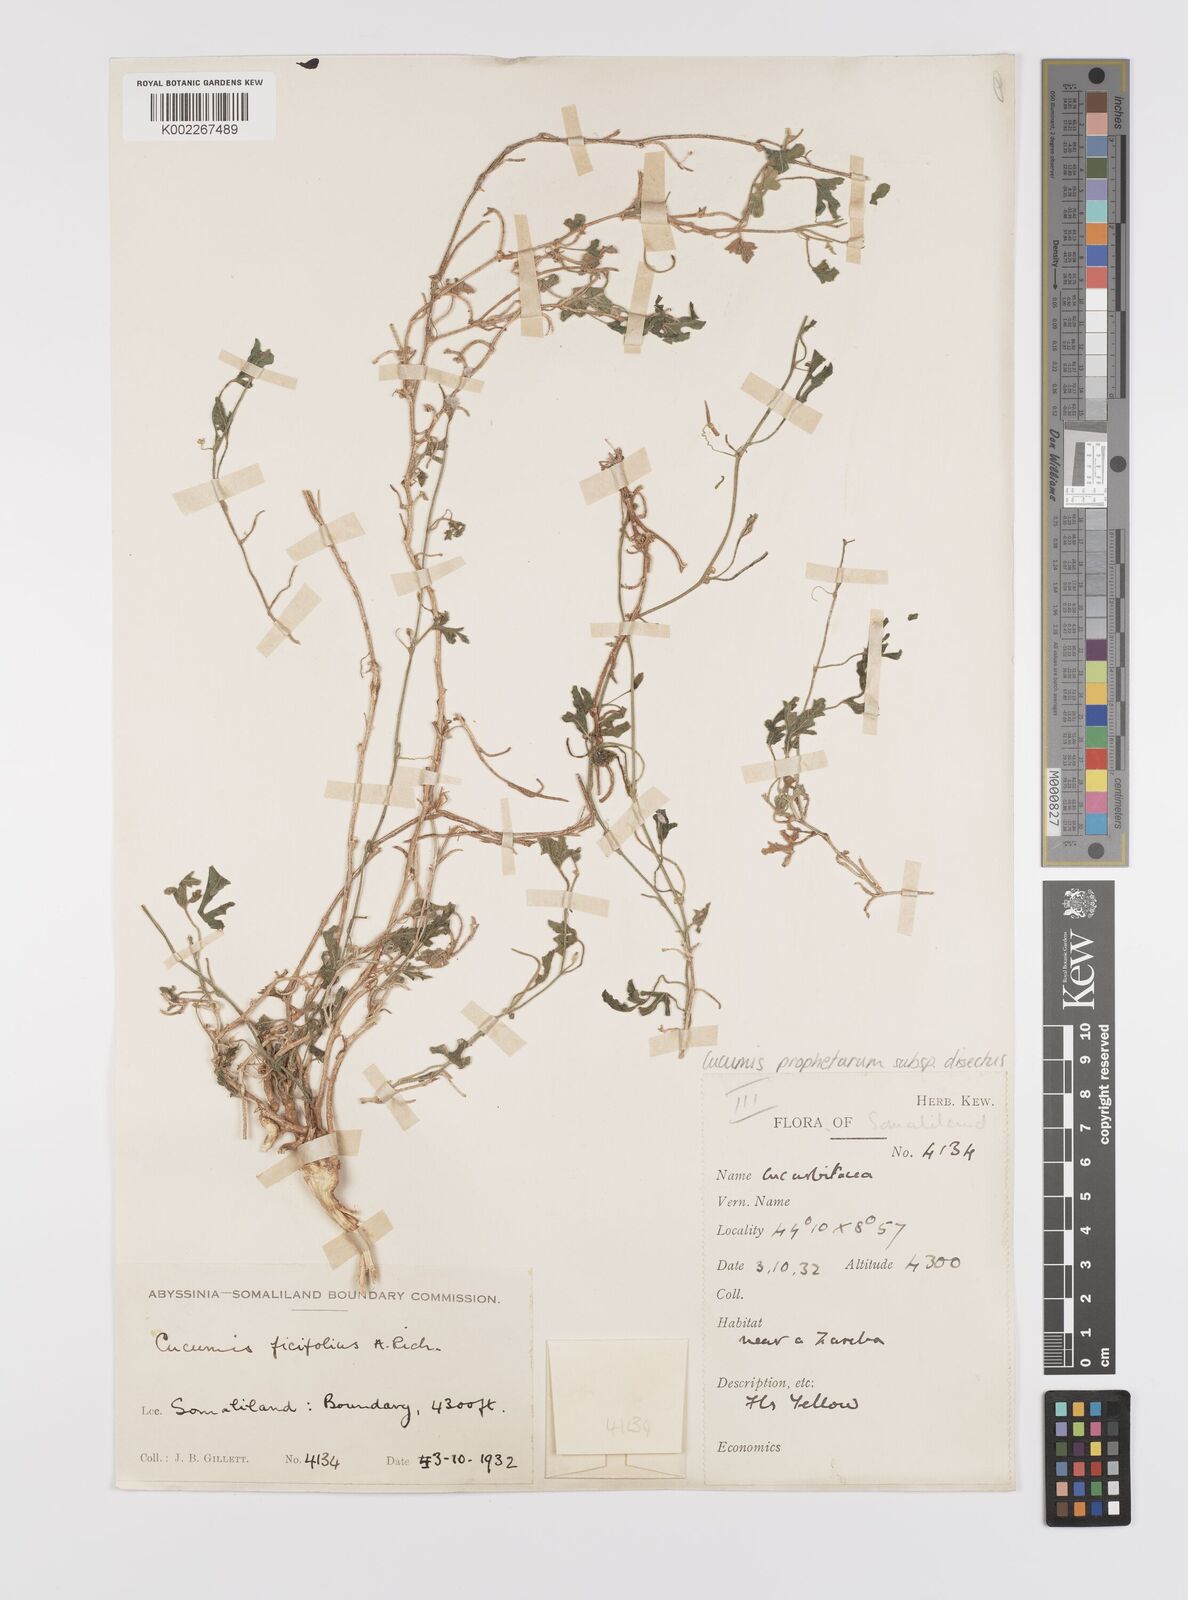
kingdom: Plantae
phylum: Tracheophyta
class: Magnoliopsida
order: Cucurbitales
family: Cucurbitaceae
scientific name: Cucurbitaceae
